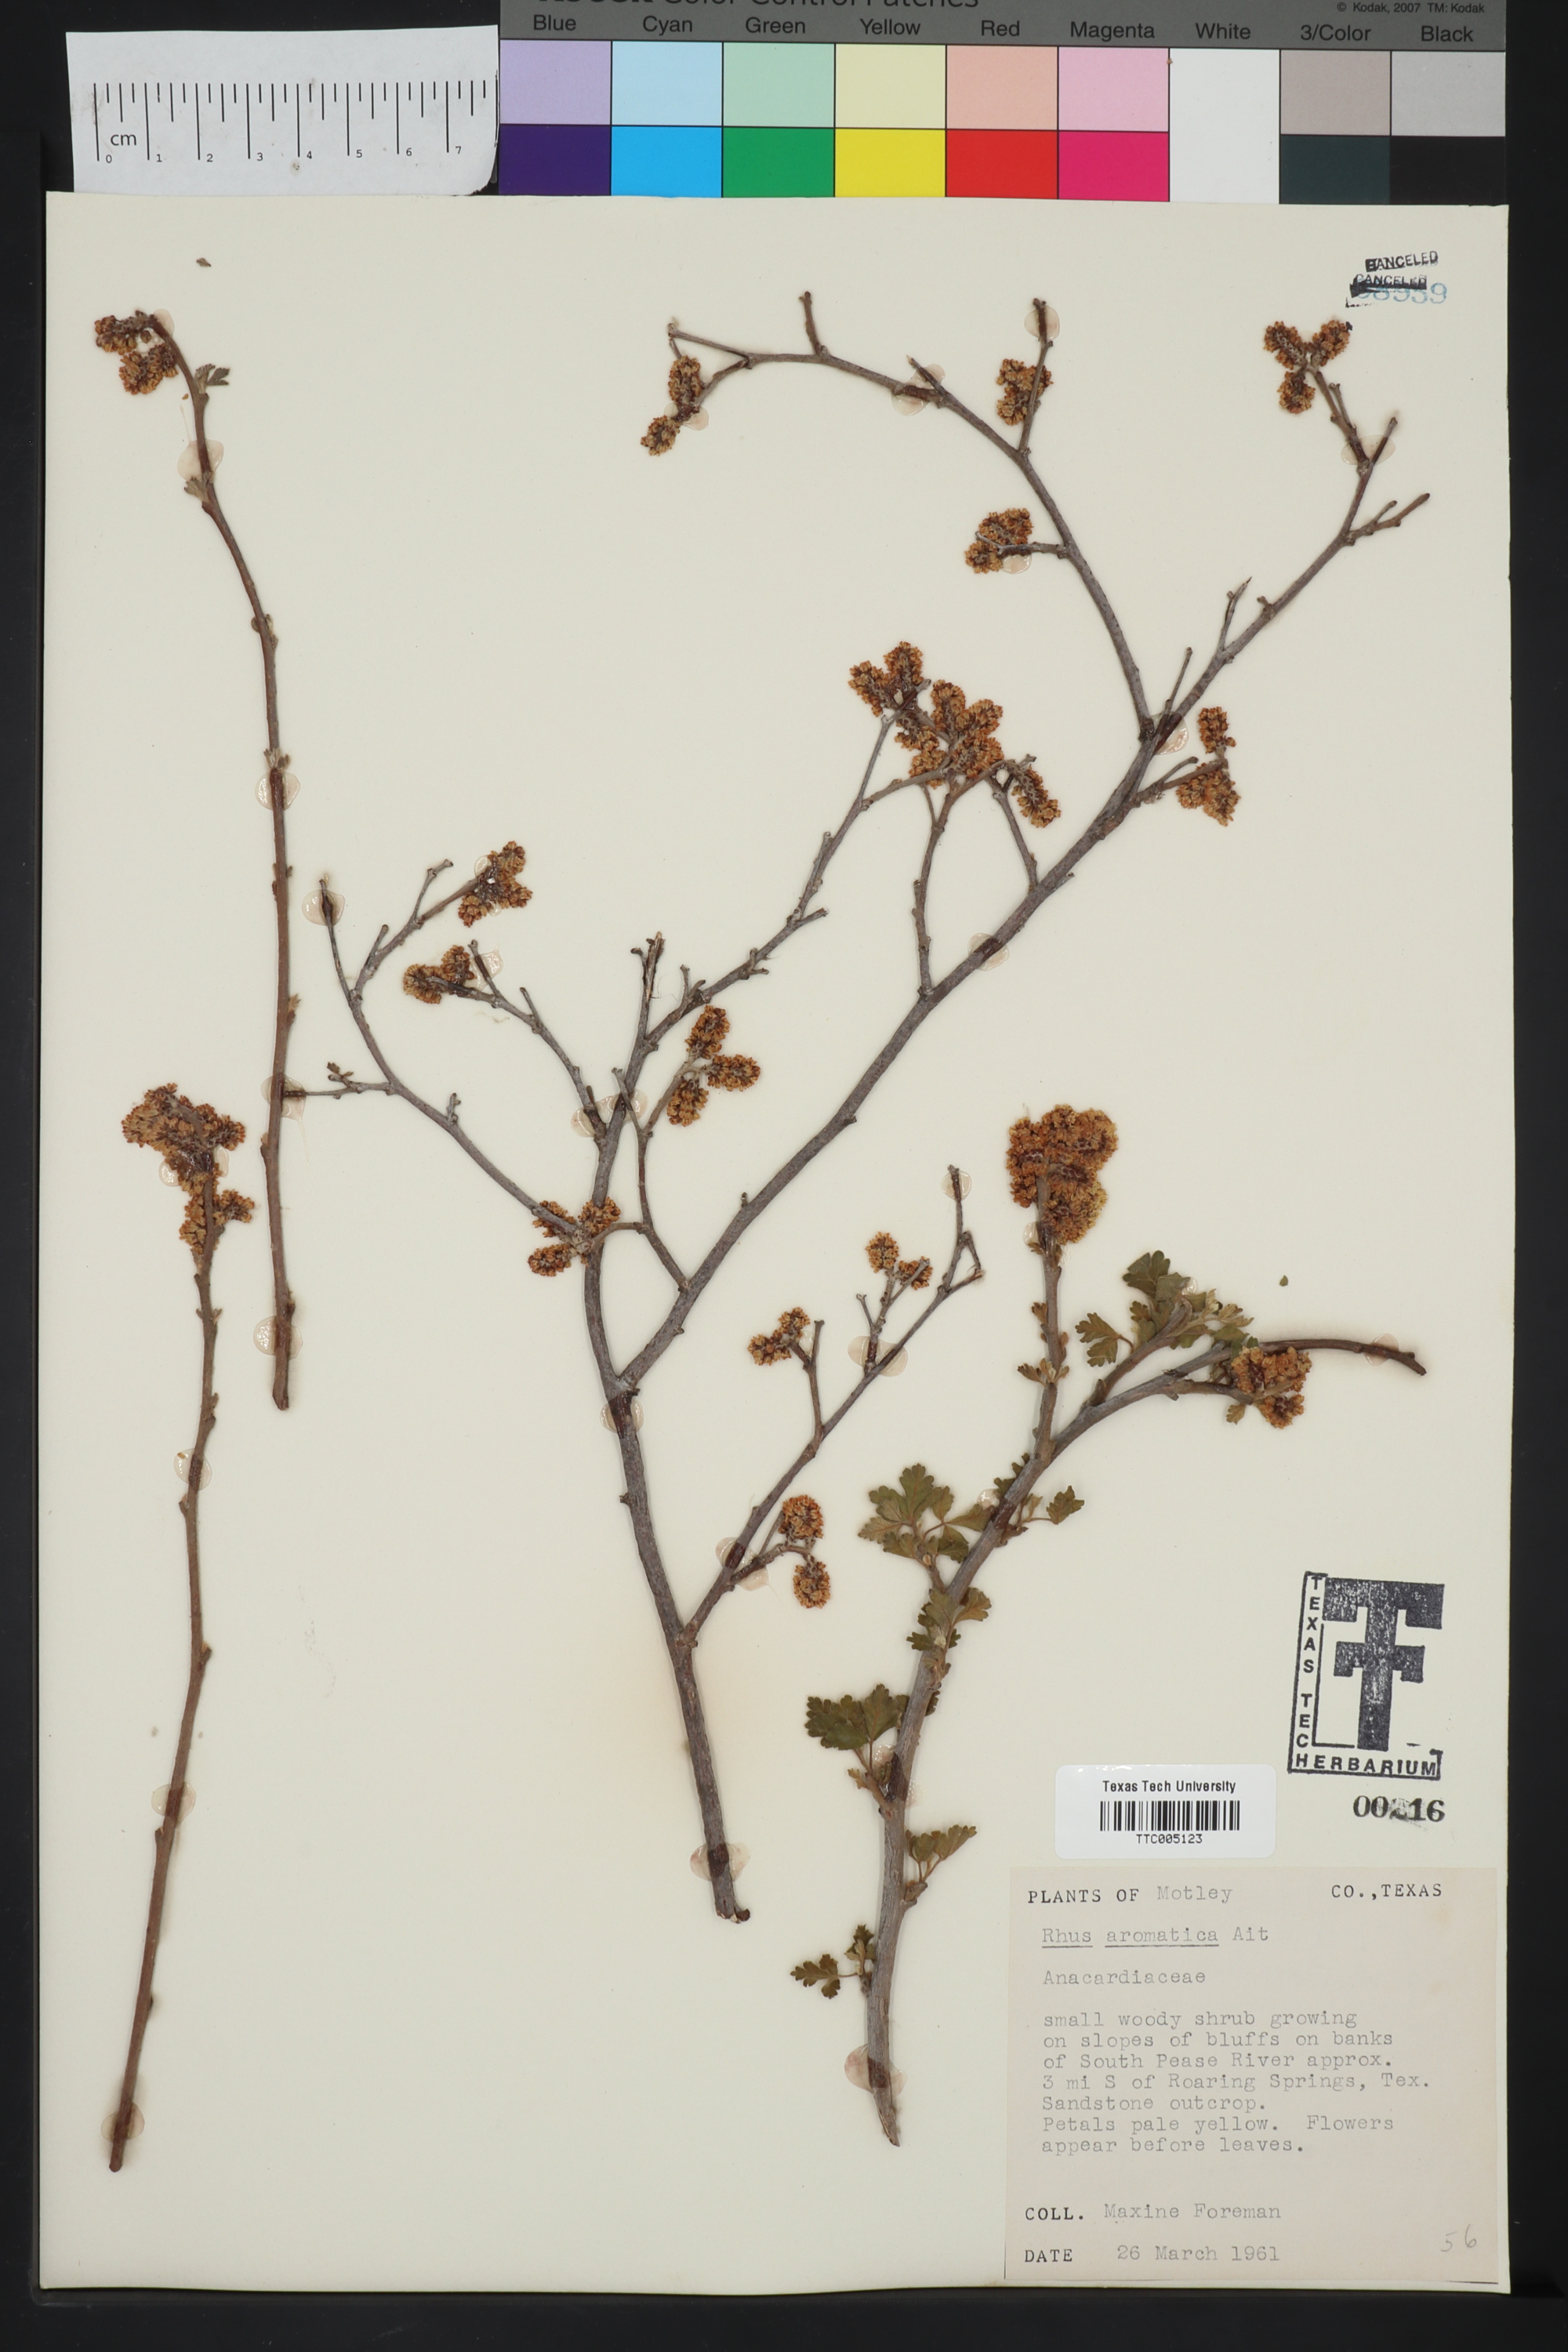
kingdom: Plantae
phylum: Tracheophyta
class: Magnoliopsida
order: Sapindales
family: Anacardiaceae
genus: Rhus
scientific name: Rhus aromatica
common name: Aromatic sumac
